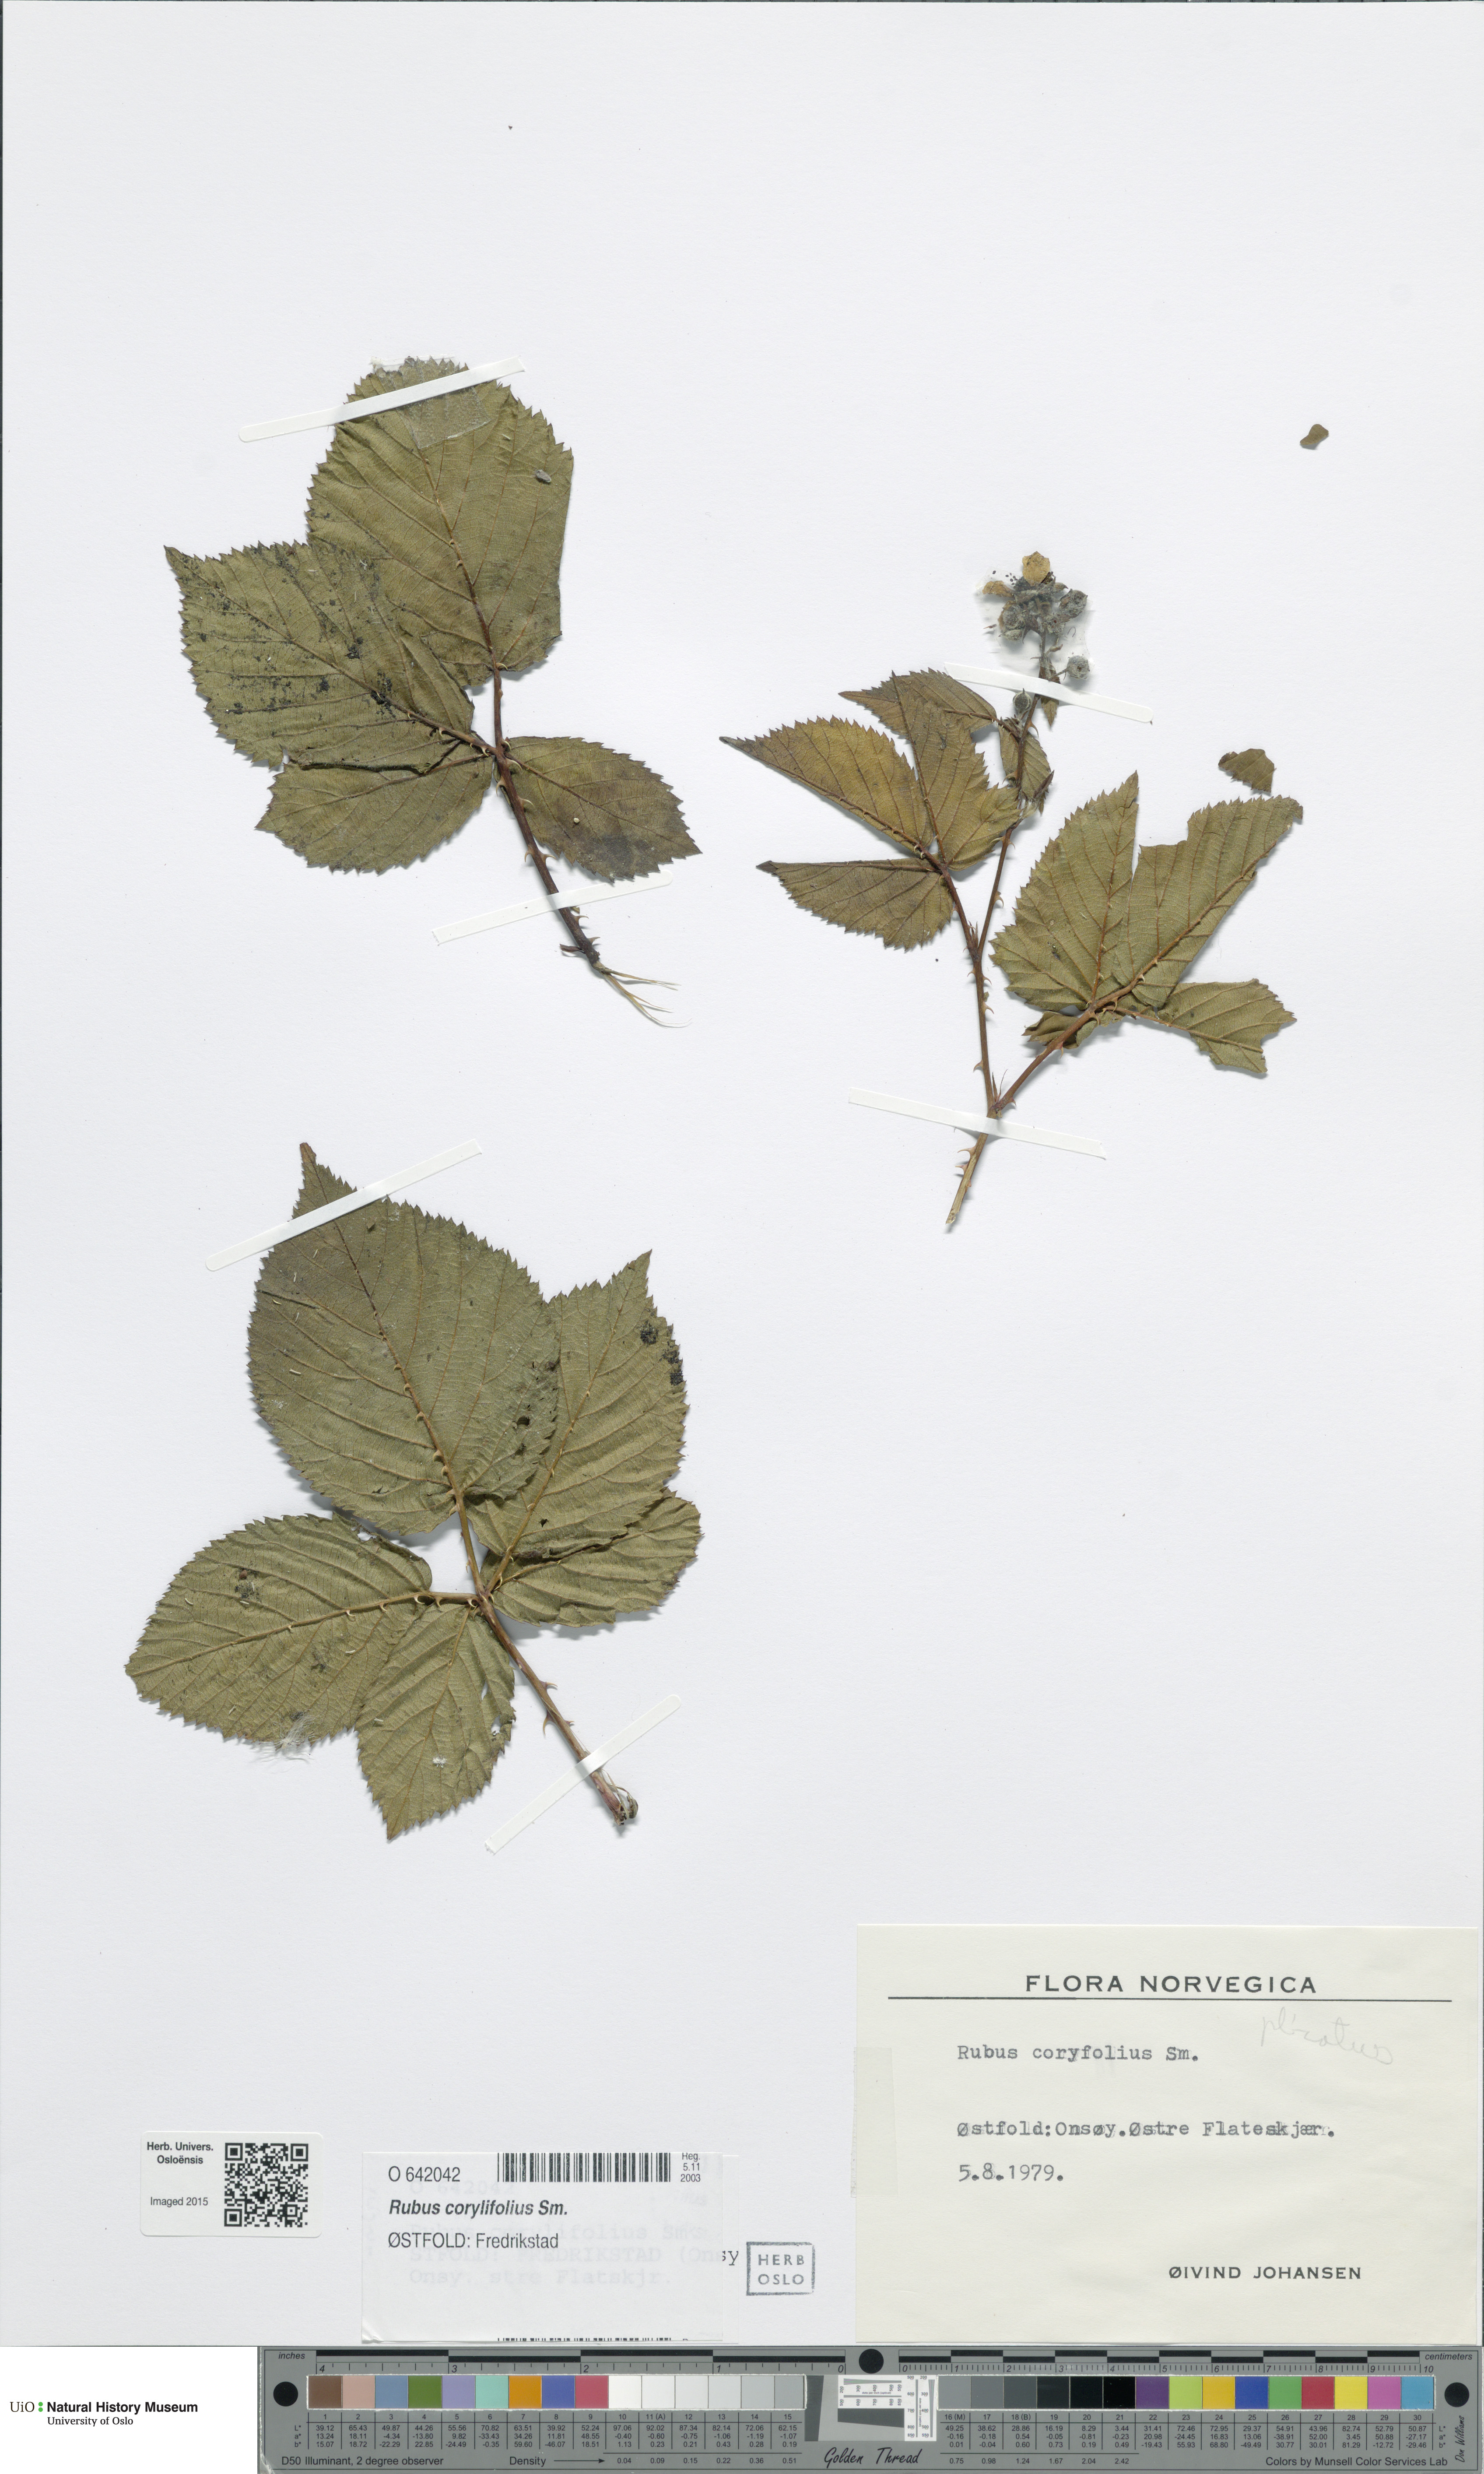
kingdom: Plantae
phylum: Tracheophyta
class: Magnoliopsida
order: Rosales
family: Rosaceae
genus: Rubus
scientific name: Rubus
